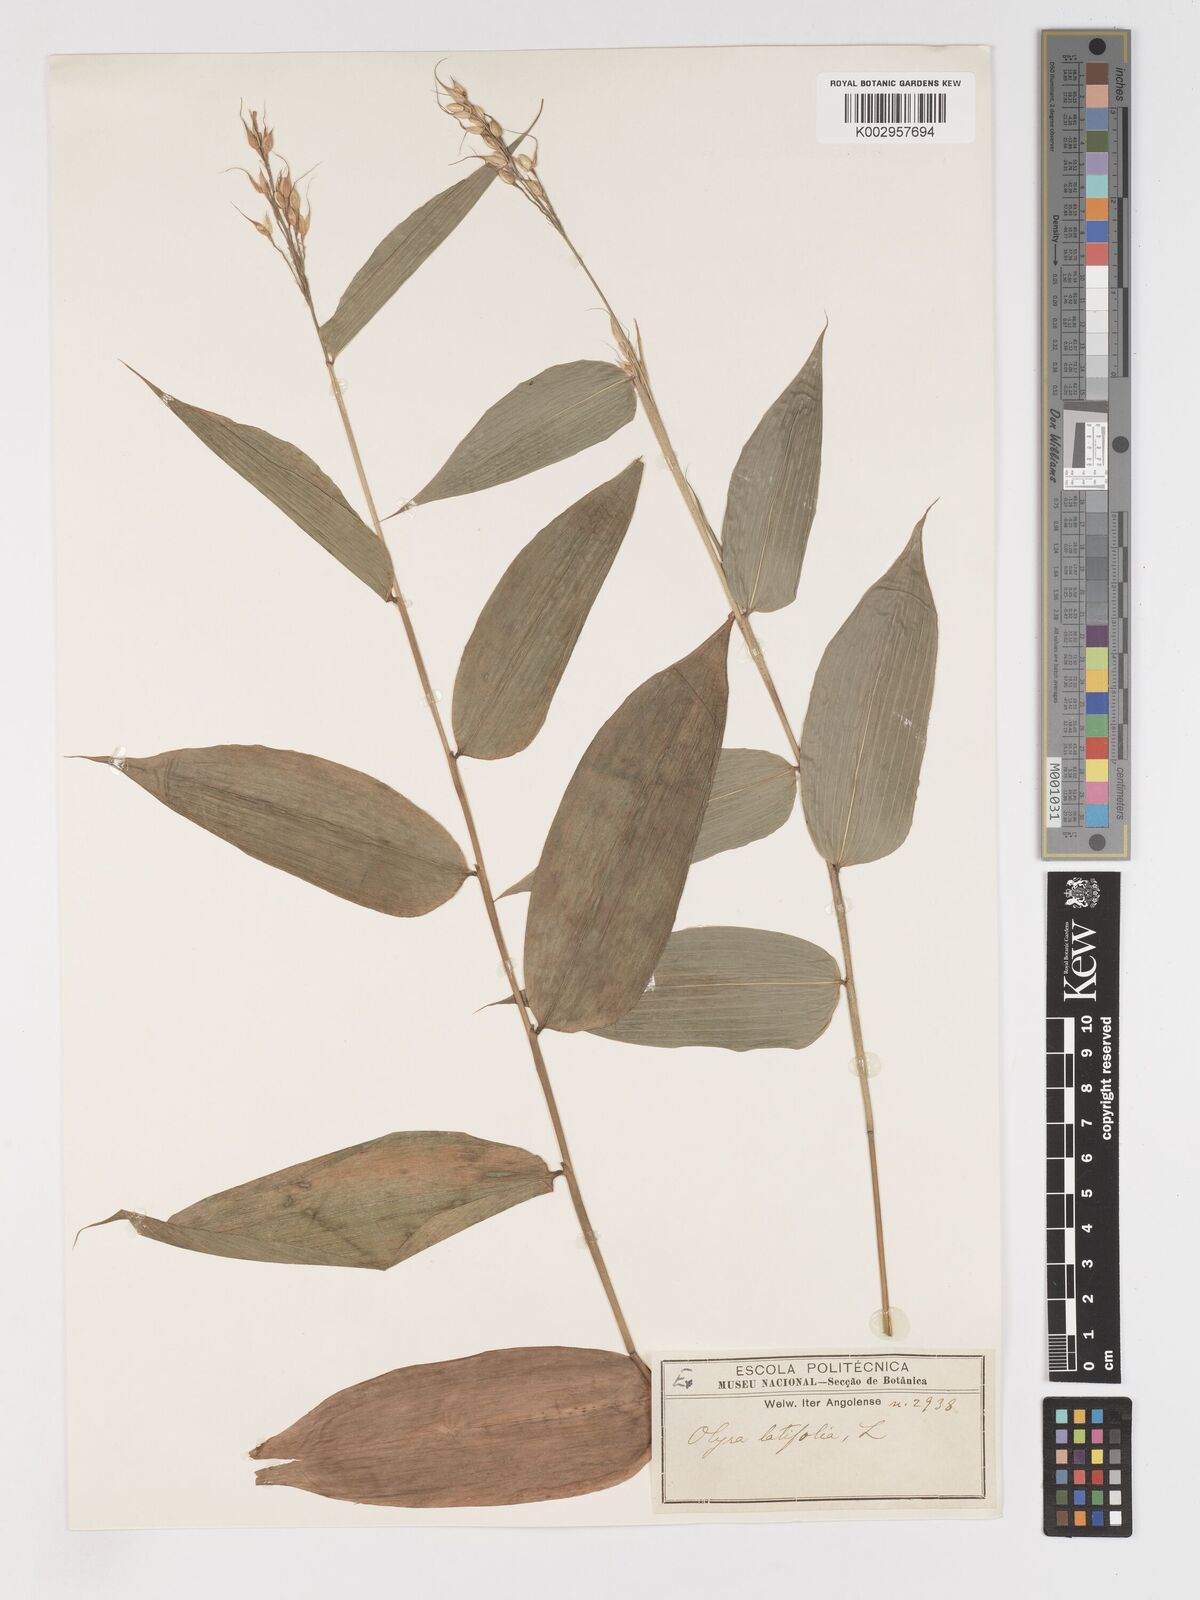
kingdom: Plantae
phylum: Tracheophyta
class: Liliopsida
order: Poales
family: Poaceae
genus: Olyra
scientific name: Olyra latifolia
